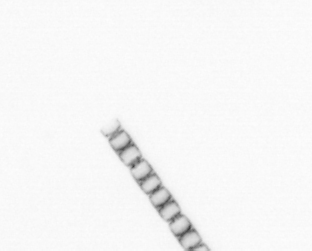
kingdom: Chromista
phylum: Ochrophyta
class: Bacillariophyceae
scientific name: Bacillariophyceae
